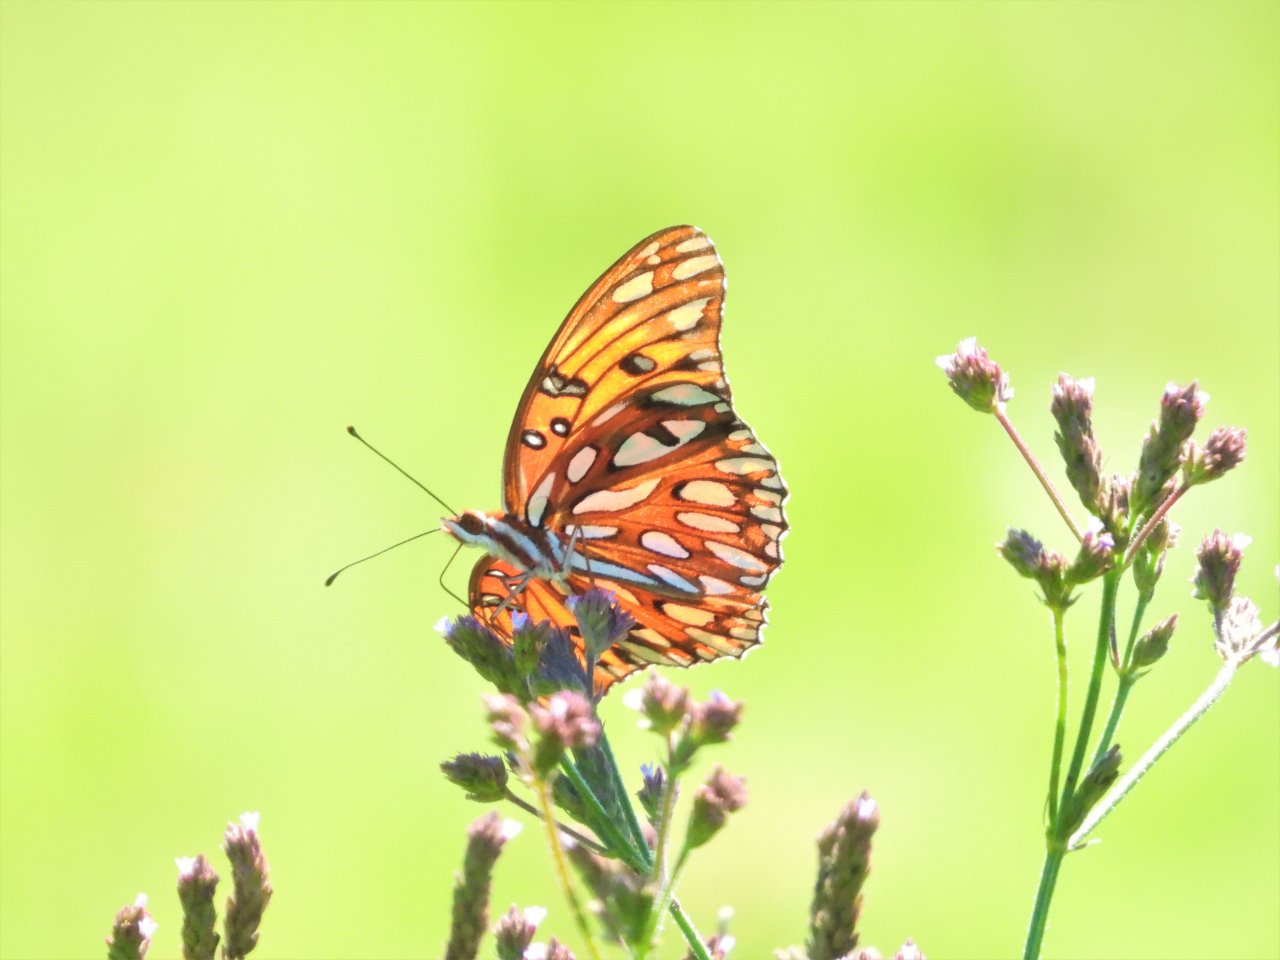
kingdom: Animalia
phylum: Arthropoda
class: Insecta
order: Lepidoptera
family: Nymphalidae
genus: Dione
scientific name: Dione vanillae
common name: Gulf Fritillary
